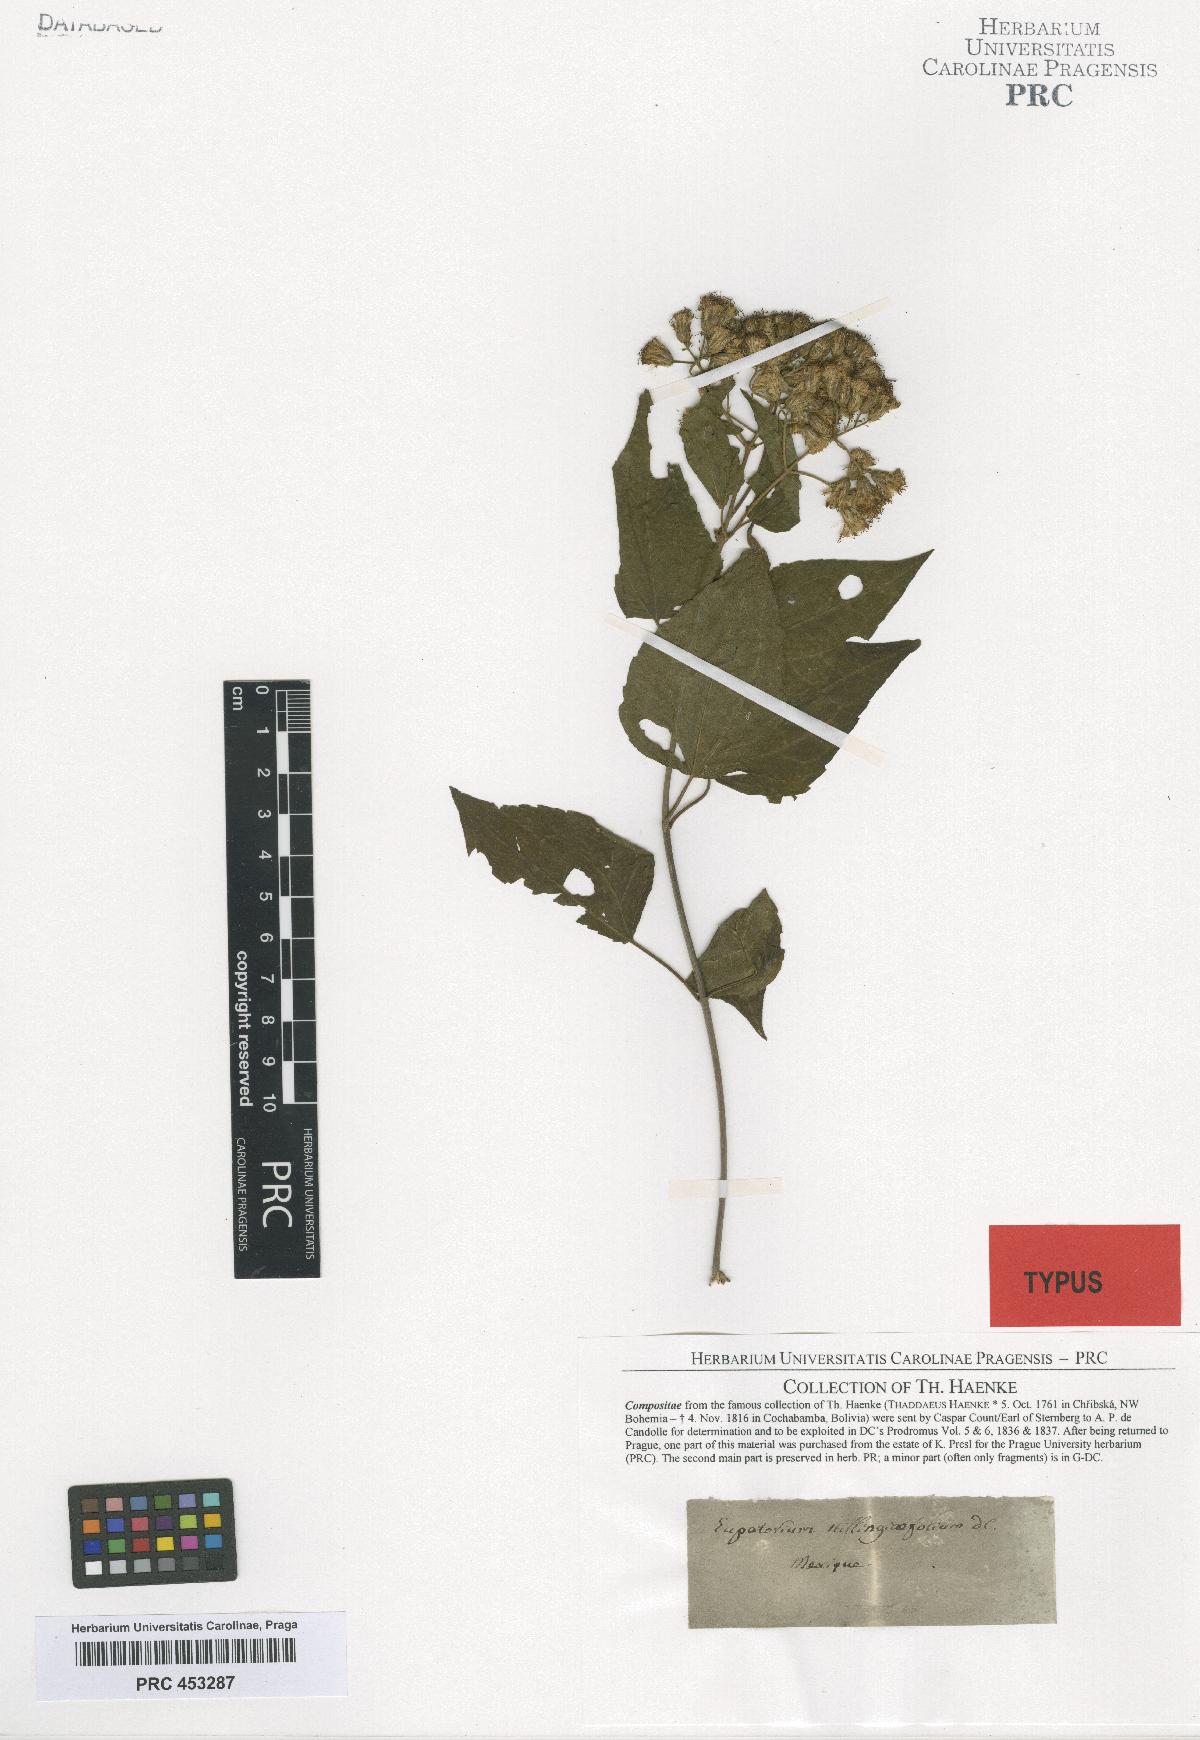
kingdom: Plantae
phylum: Tracheophyta
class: Magnoliopsida
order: Asterales
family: Asteraceae
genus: Chromolaena
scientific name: Chromolaena stillingiaefolia
